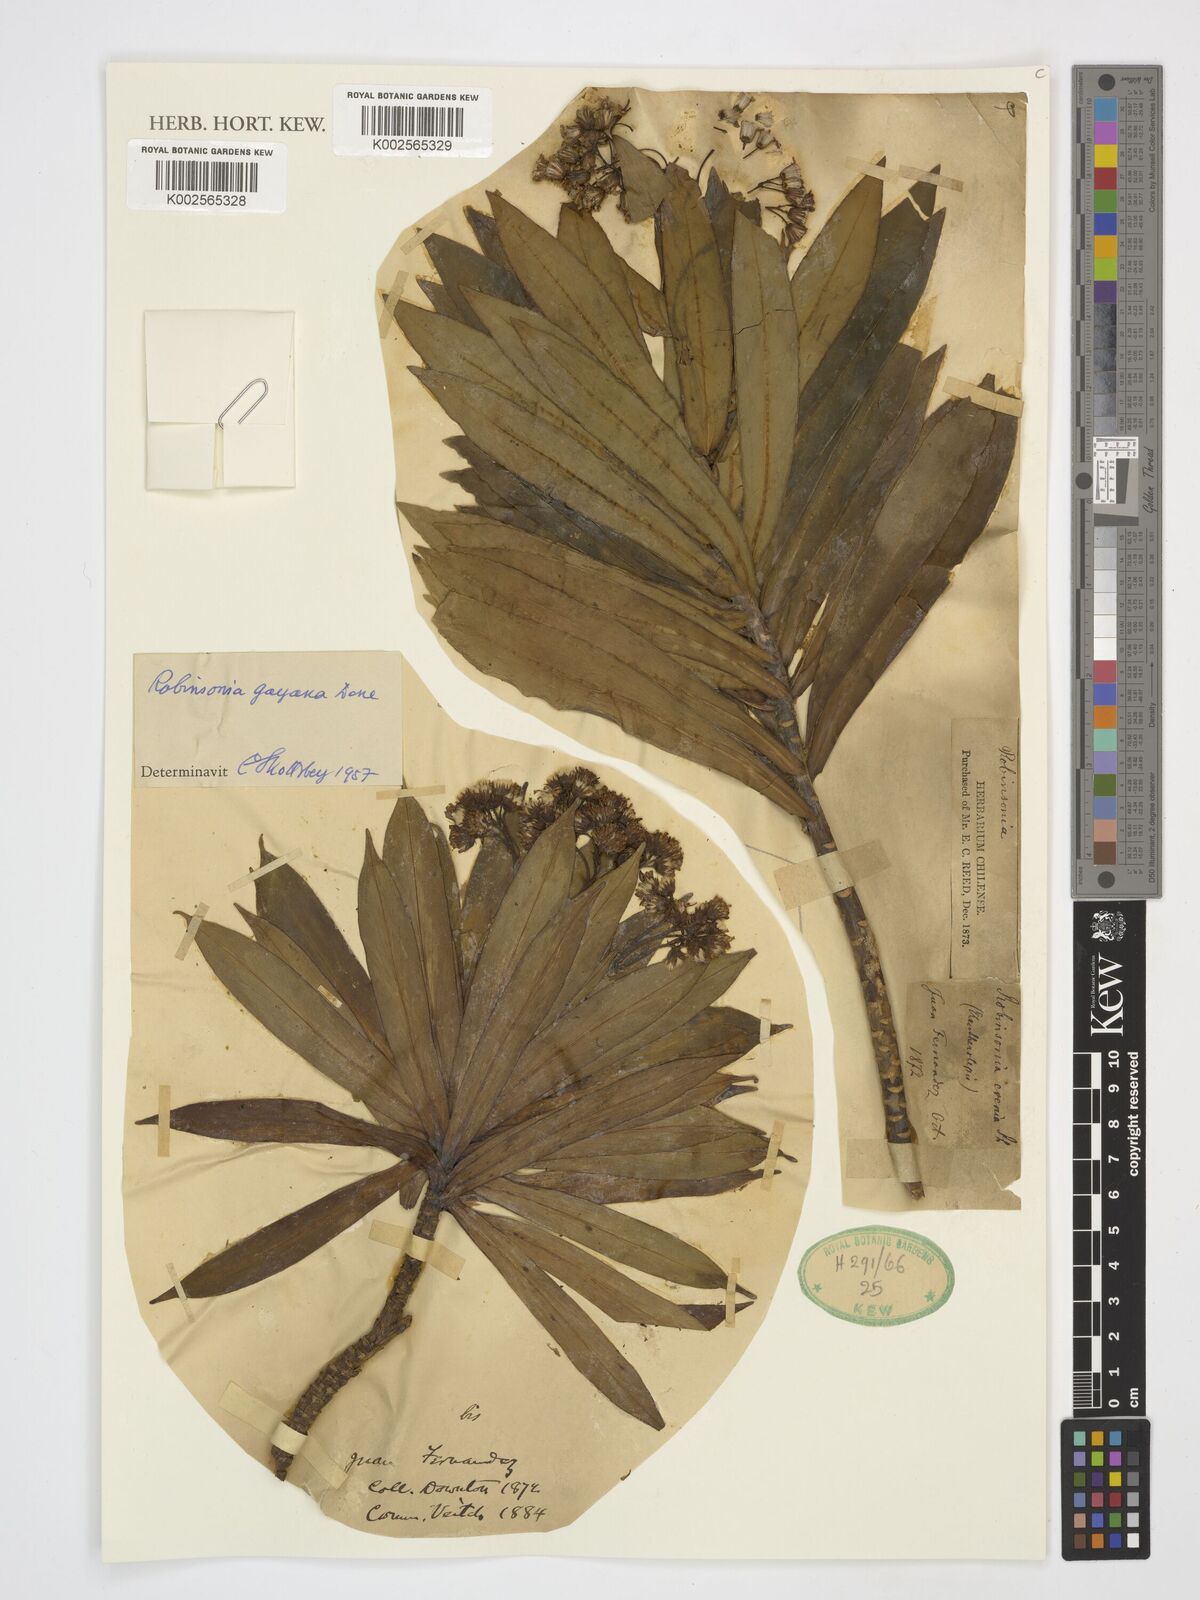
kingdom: Plantae
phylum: Tracheophyta
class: Magnoliopsida
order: Asterales
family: Asteraceae
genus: Robinsonia
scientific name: Robinsonia
